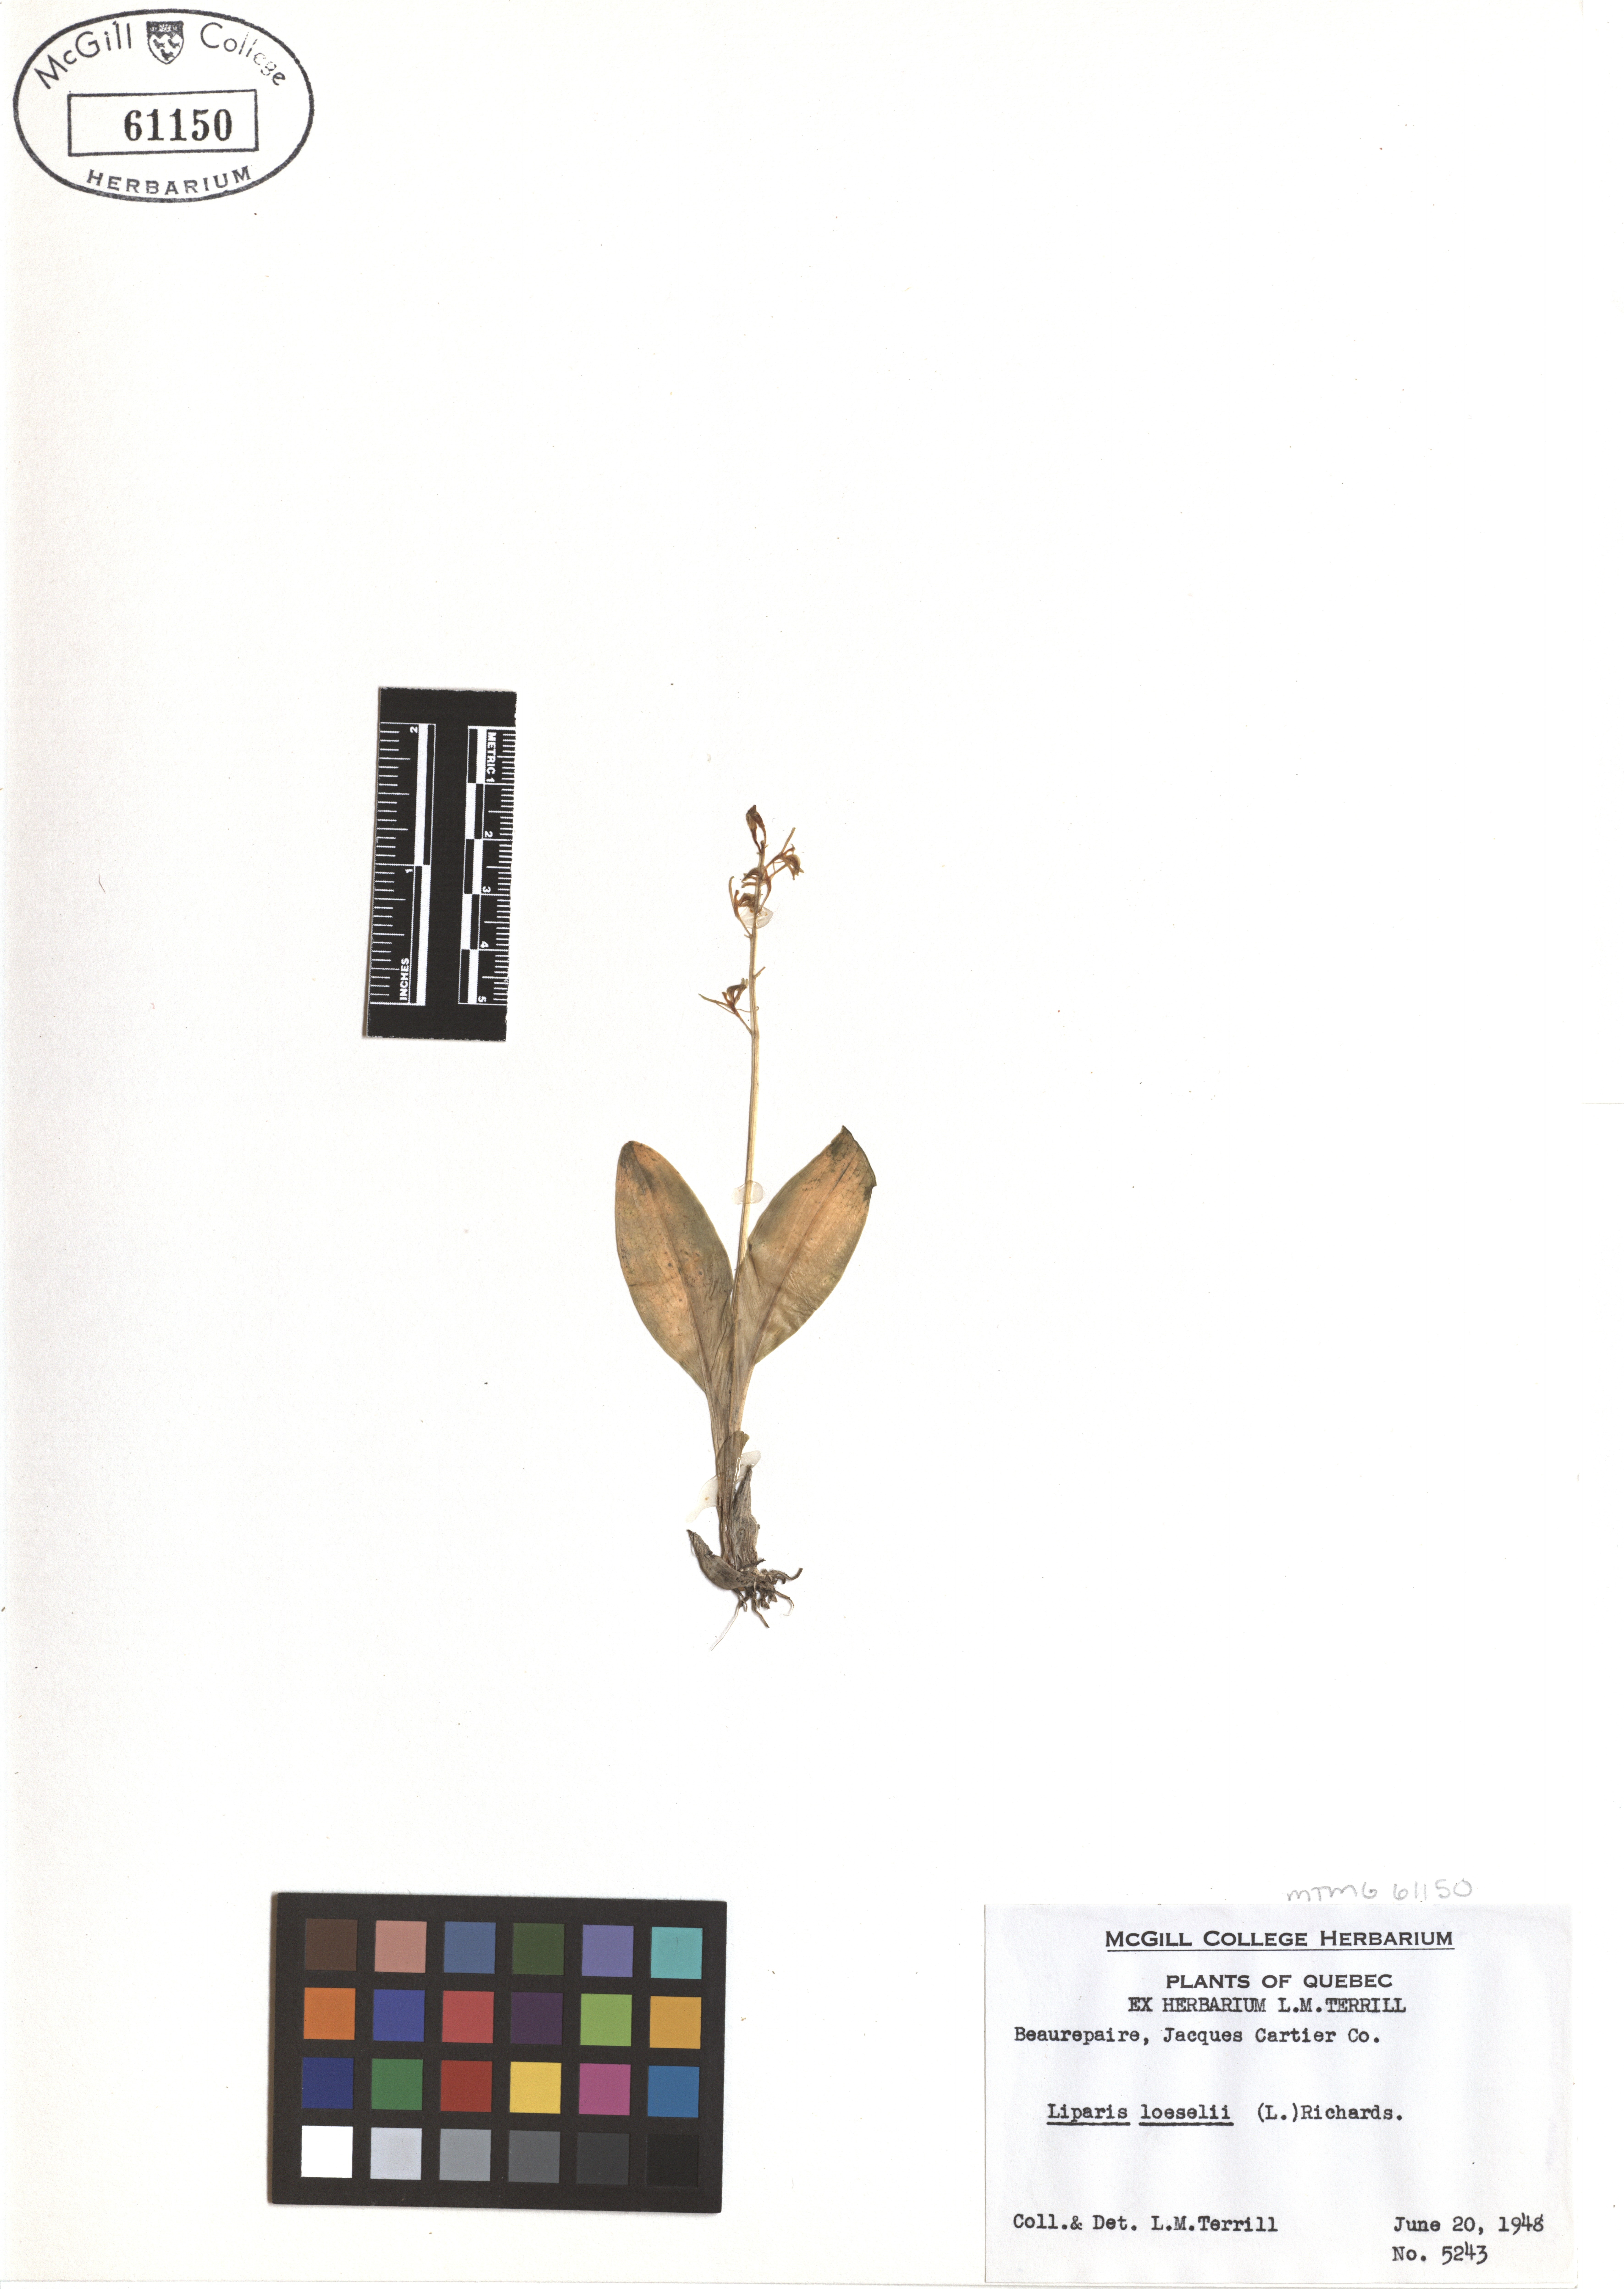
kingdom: Animalia
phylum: Arthropoda
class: Insecta
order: Coleoptera
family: Curculionidae
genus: Liparis
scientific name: Liparis loeselii
